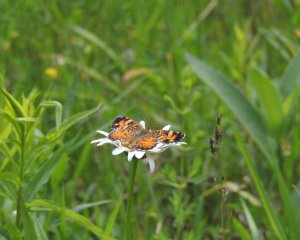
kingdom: Animalia
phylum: Arthropoda
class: Insecta
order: Lepidoptera
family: Nymphalidae
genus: Chlosyne
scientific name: Chlosyne harrisii
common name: Harris's Checkerspot
